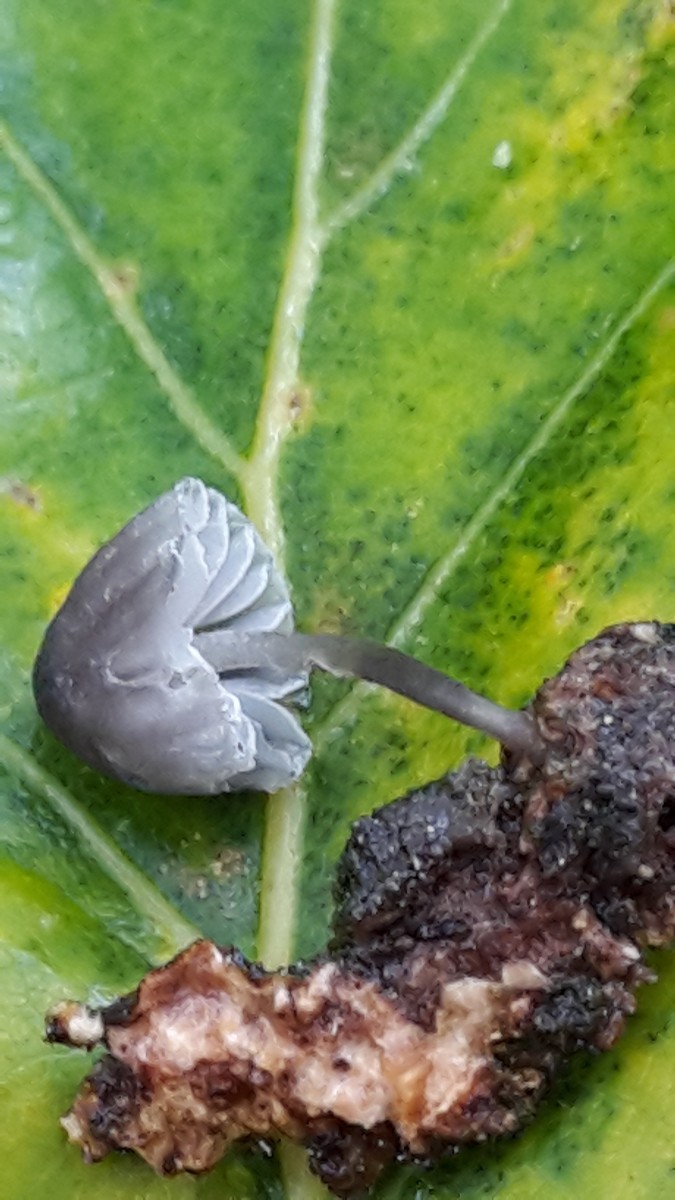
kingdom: Fungi
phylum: Basidiomycota
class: Agaricomycetes
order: Agaricales
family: Mycenaceae
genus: Mycena
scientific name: Mycena pseudocorticola
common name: gråblå bark-huesvamp
